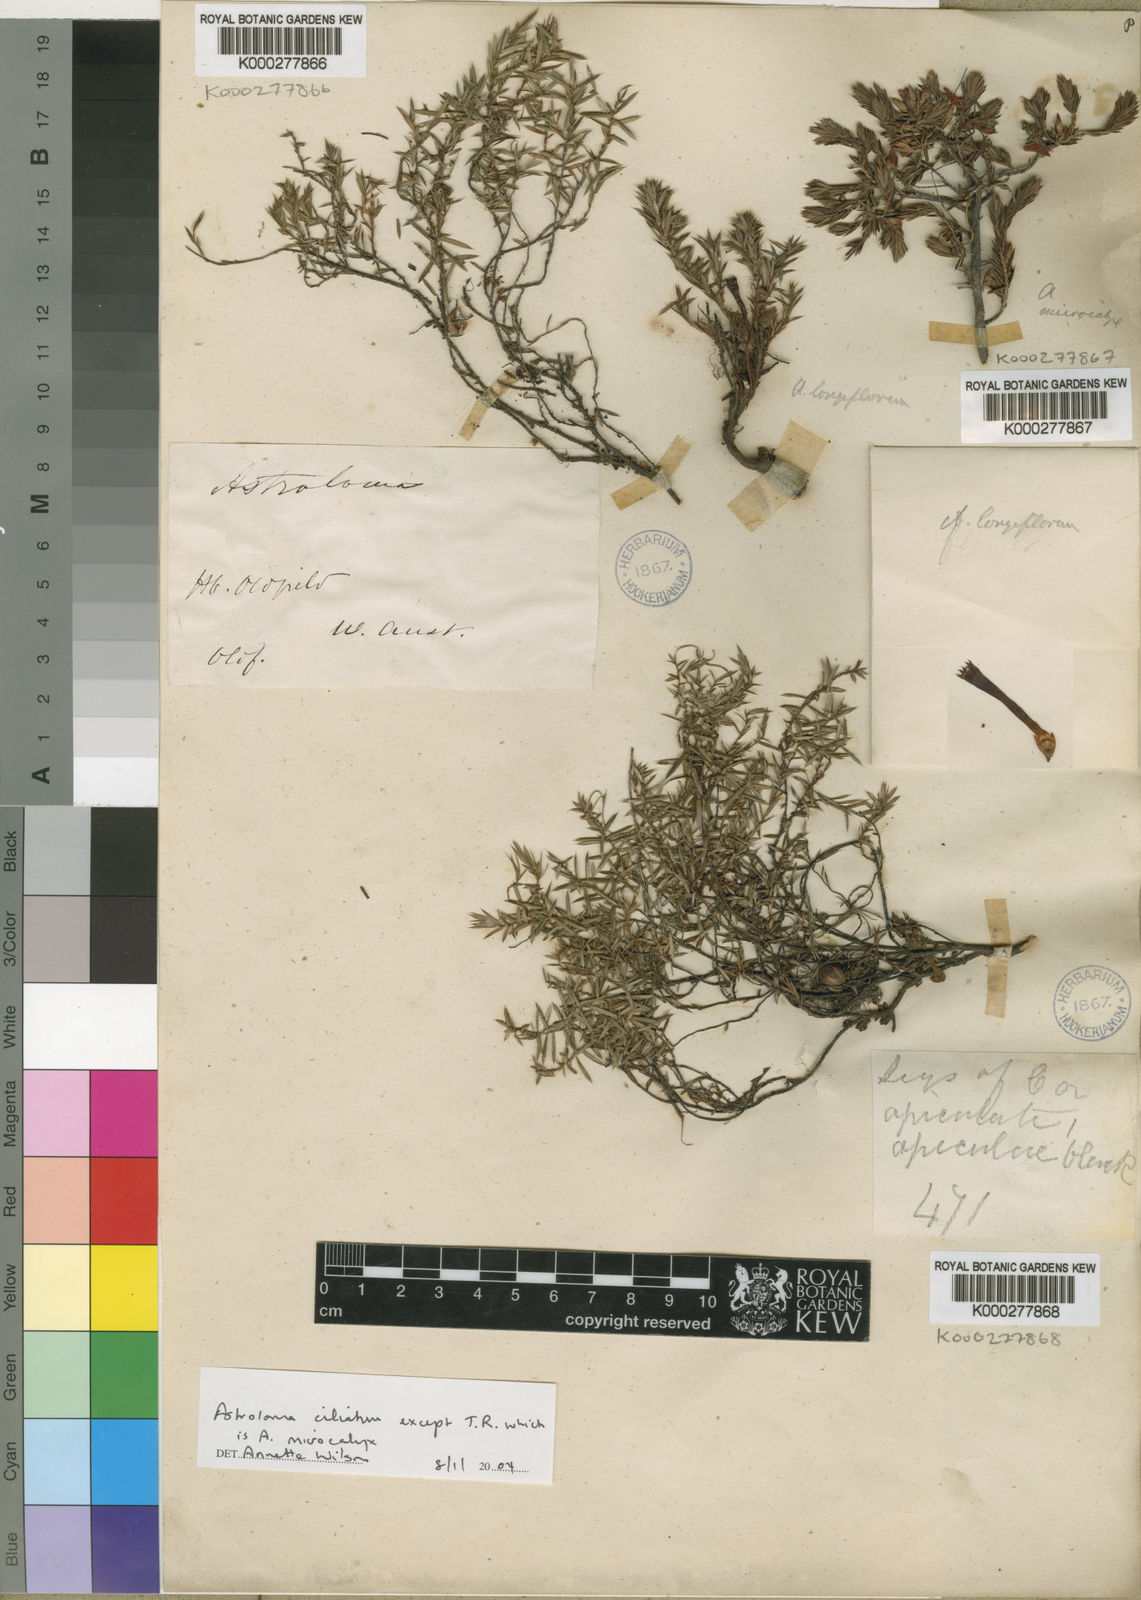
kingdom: Plantae
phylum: Tracheophyta
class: Magnoliopsida
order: Ericales
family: Ericaceae
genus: Styphelia
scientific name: Styphelia discolor
